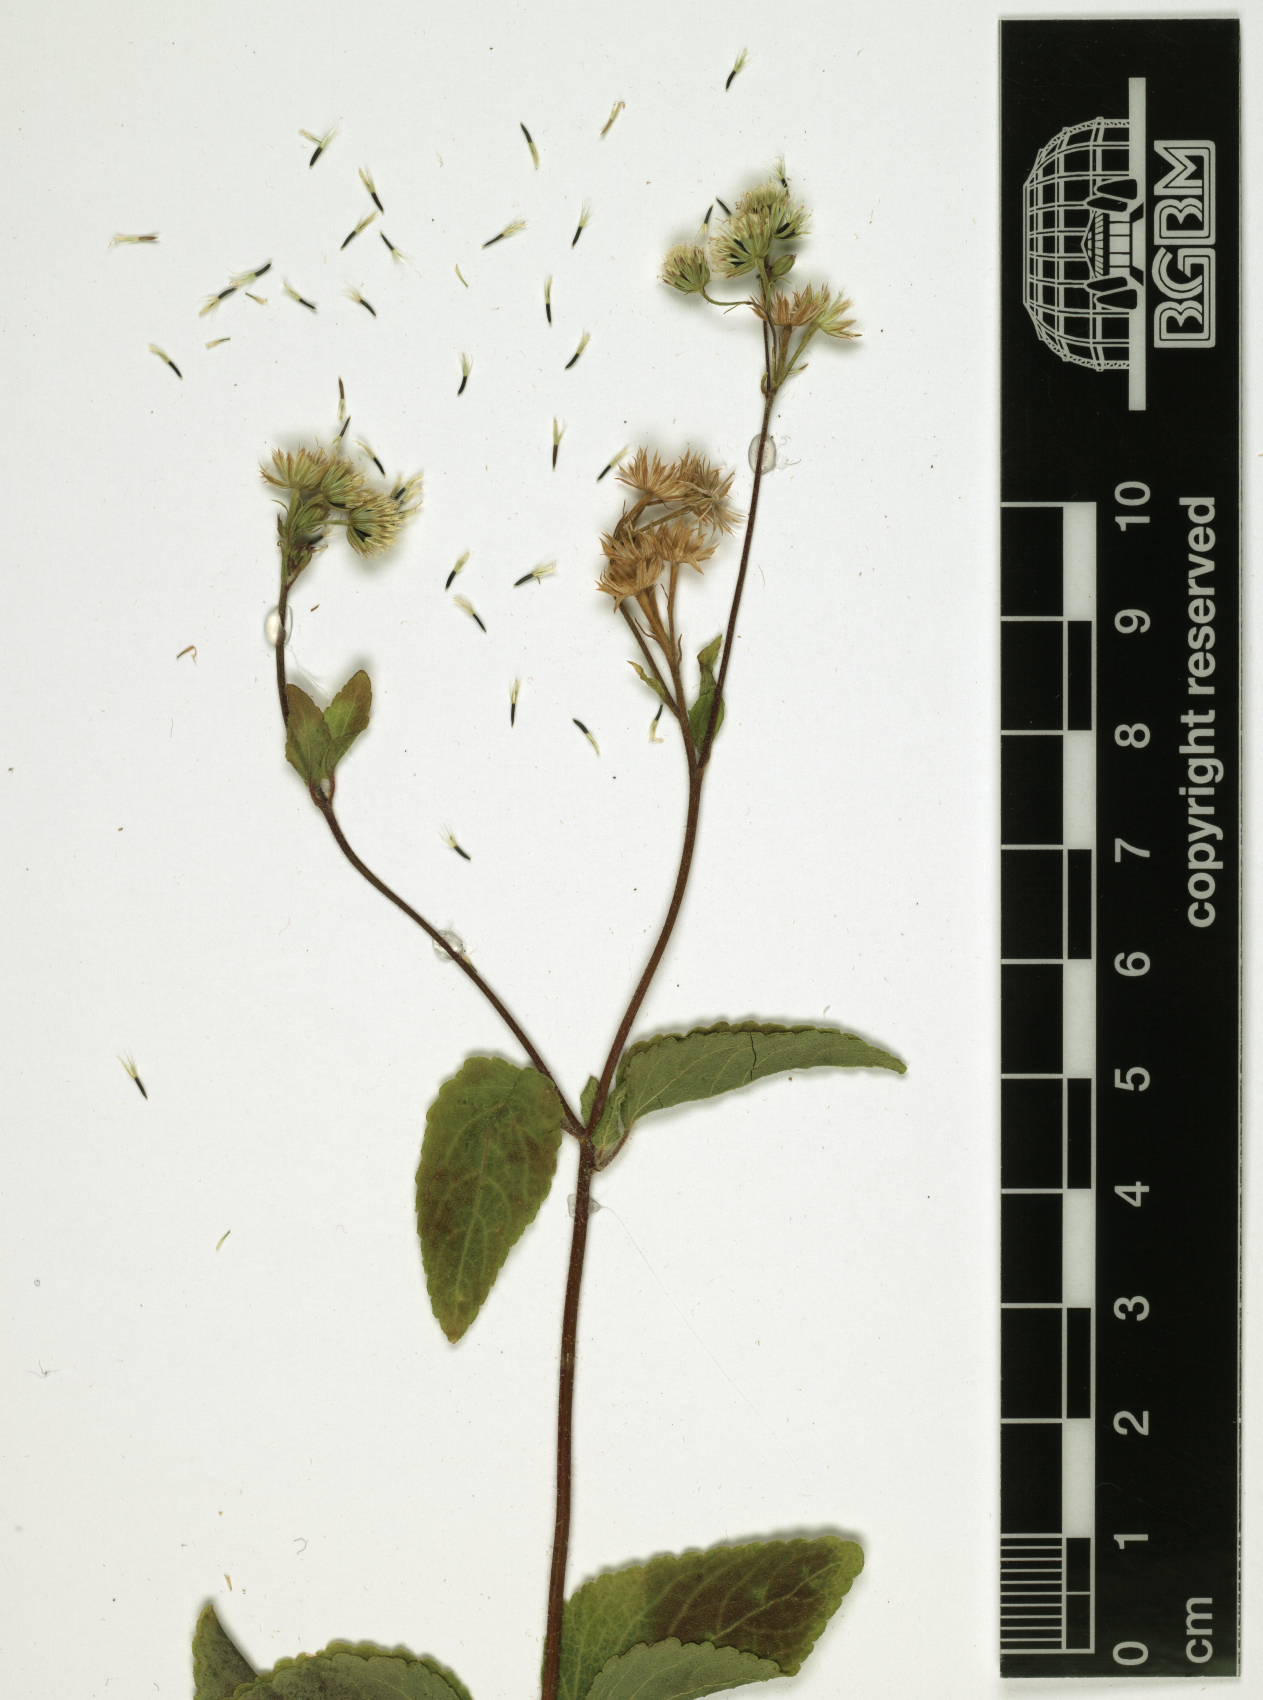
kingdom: Plantae
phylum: Tracheophyta
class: Magnoliopsida
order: Asterales
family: Asteraceae
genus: Ageratum
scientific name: Ageratum conyzoides
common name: Tropical whiteweed
